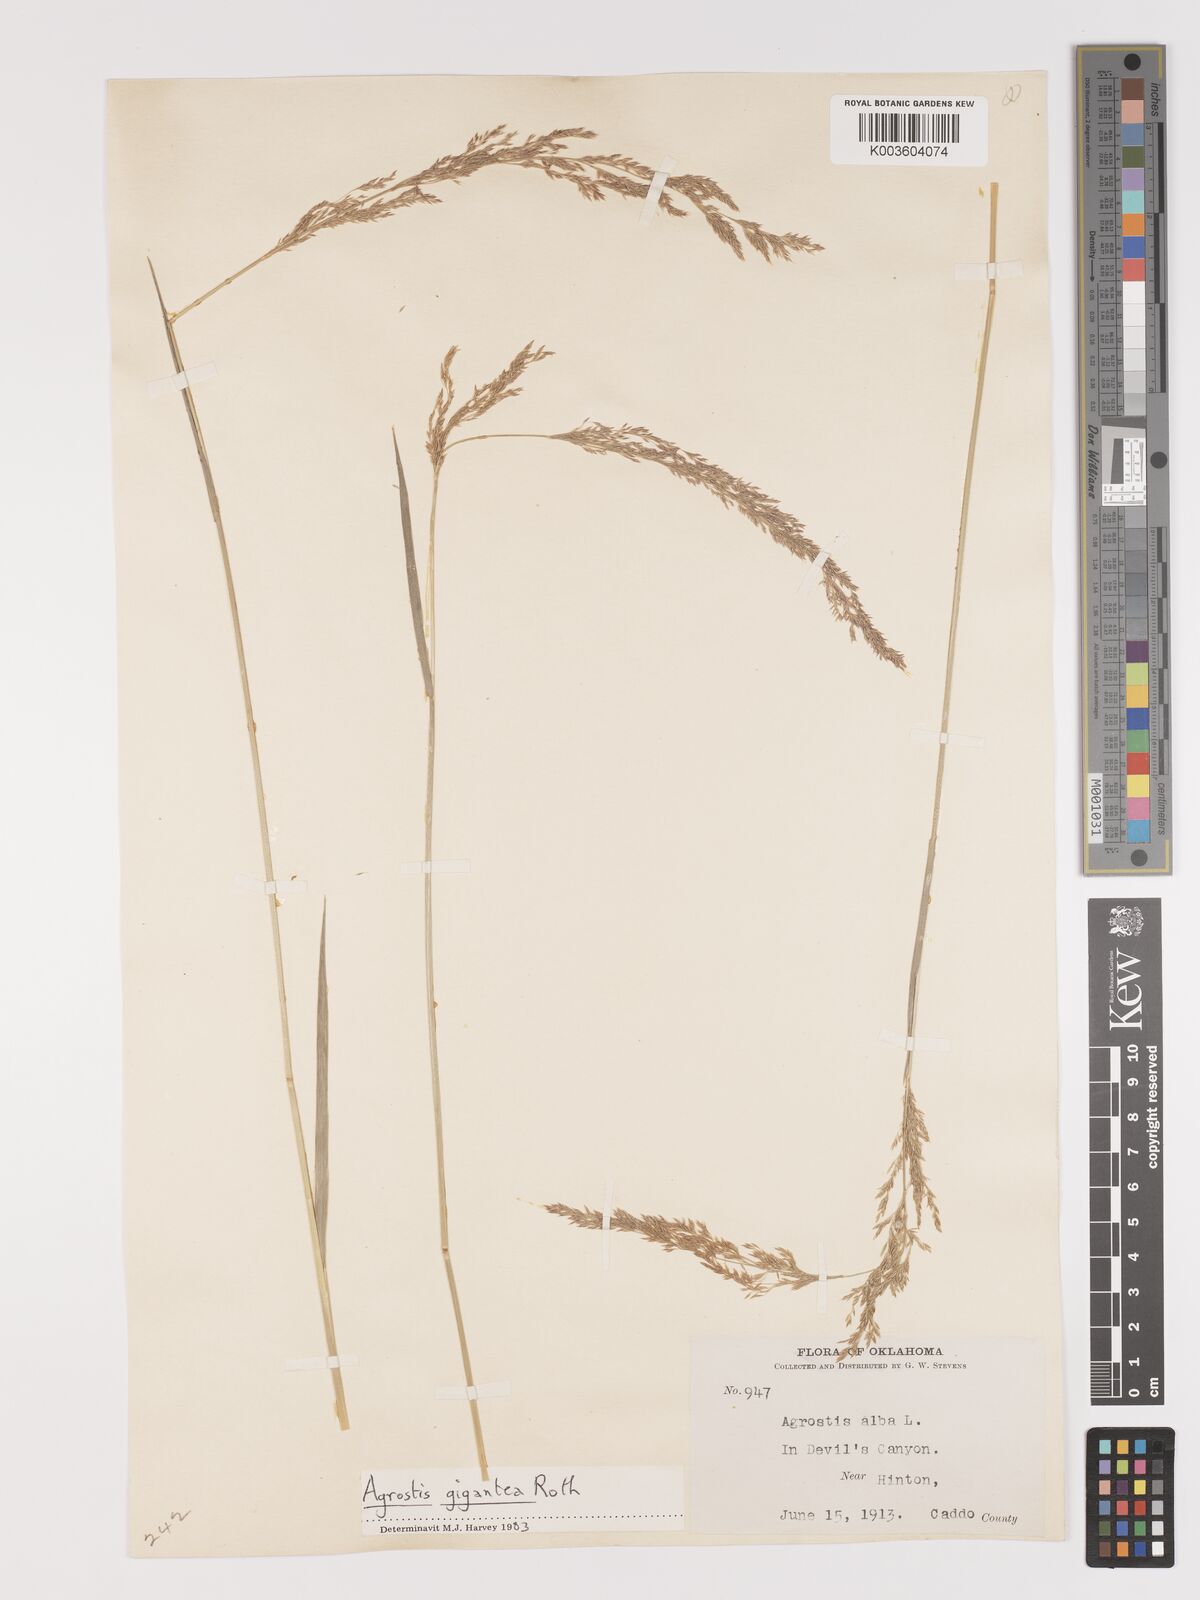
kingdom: Plantae
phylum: Tracheophyta
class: Liliopsida
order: Poales
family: Poaceae
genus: Agrostis
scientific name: Agrostis gigantea
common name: Black bent
